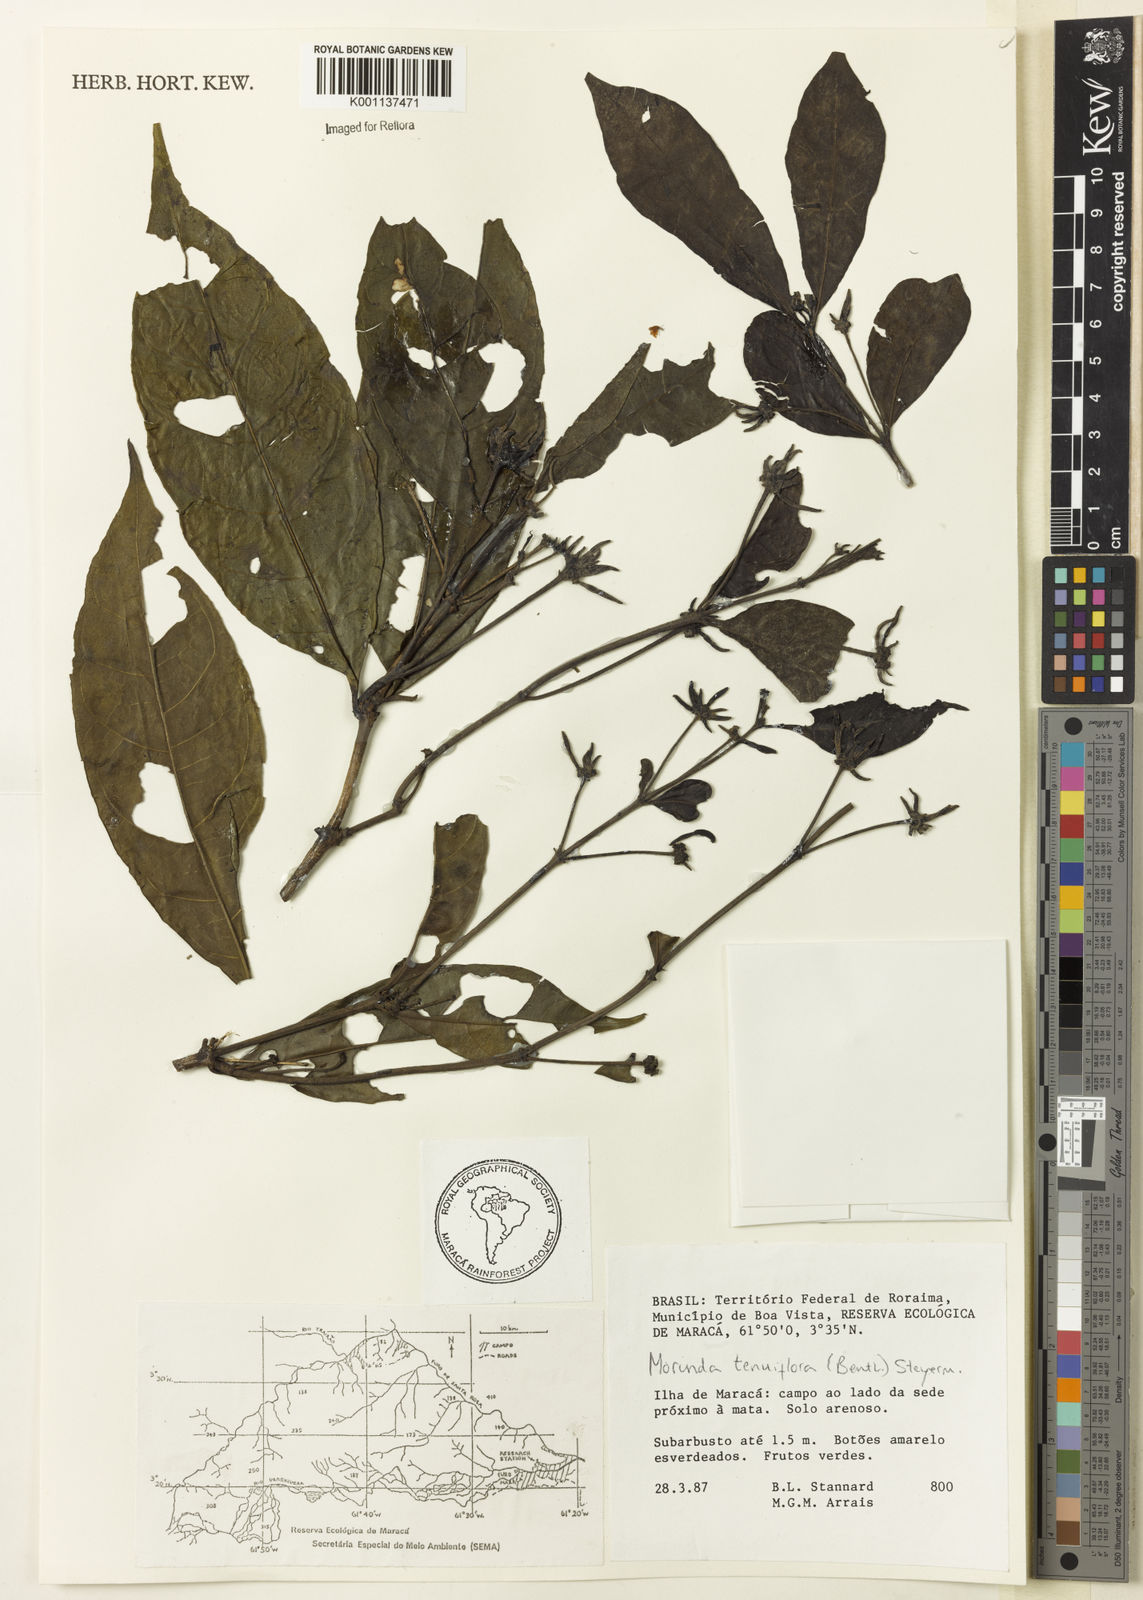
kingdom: Plantae
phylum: Tracheophyta
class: Magnoliopsida
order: Gentianales
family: Rubiaceae
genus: Appunia
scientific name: Appunia tenuiflora
